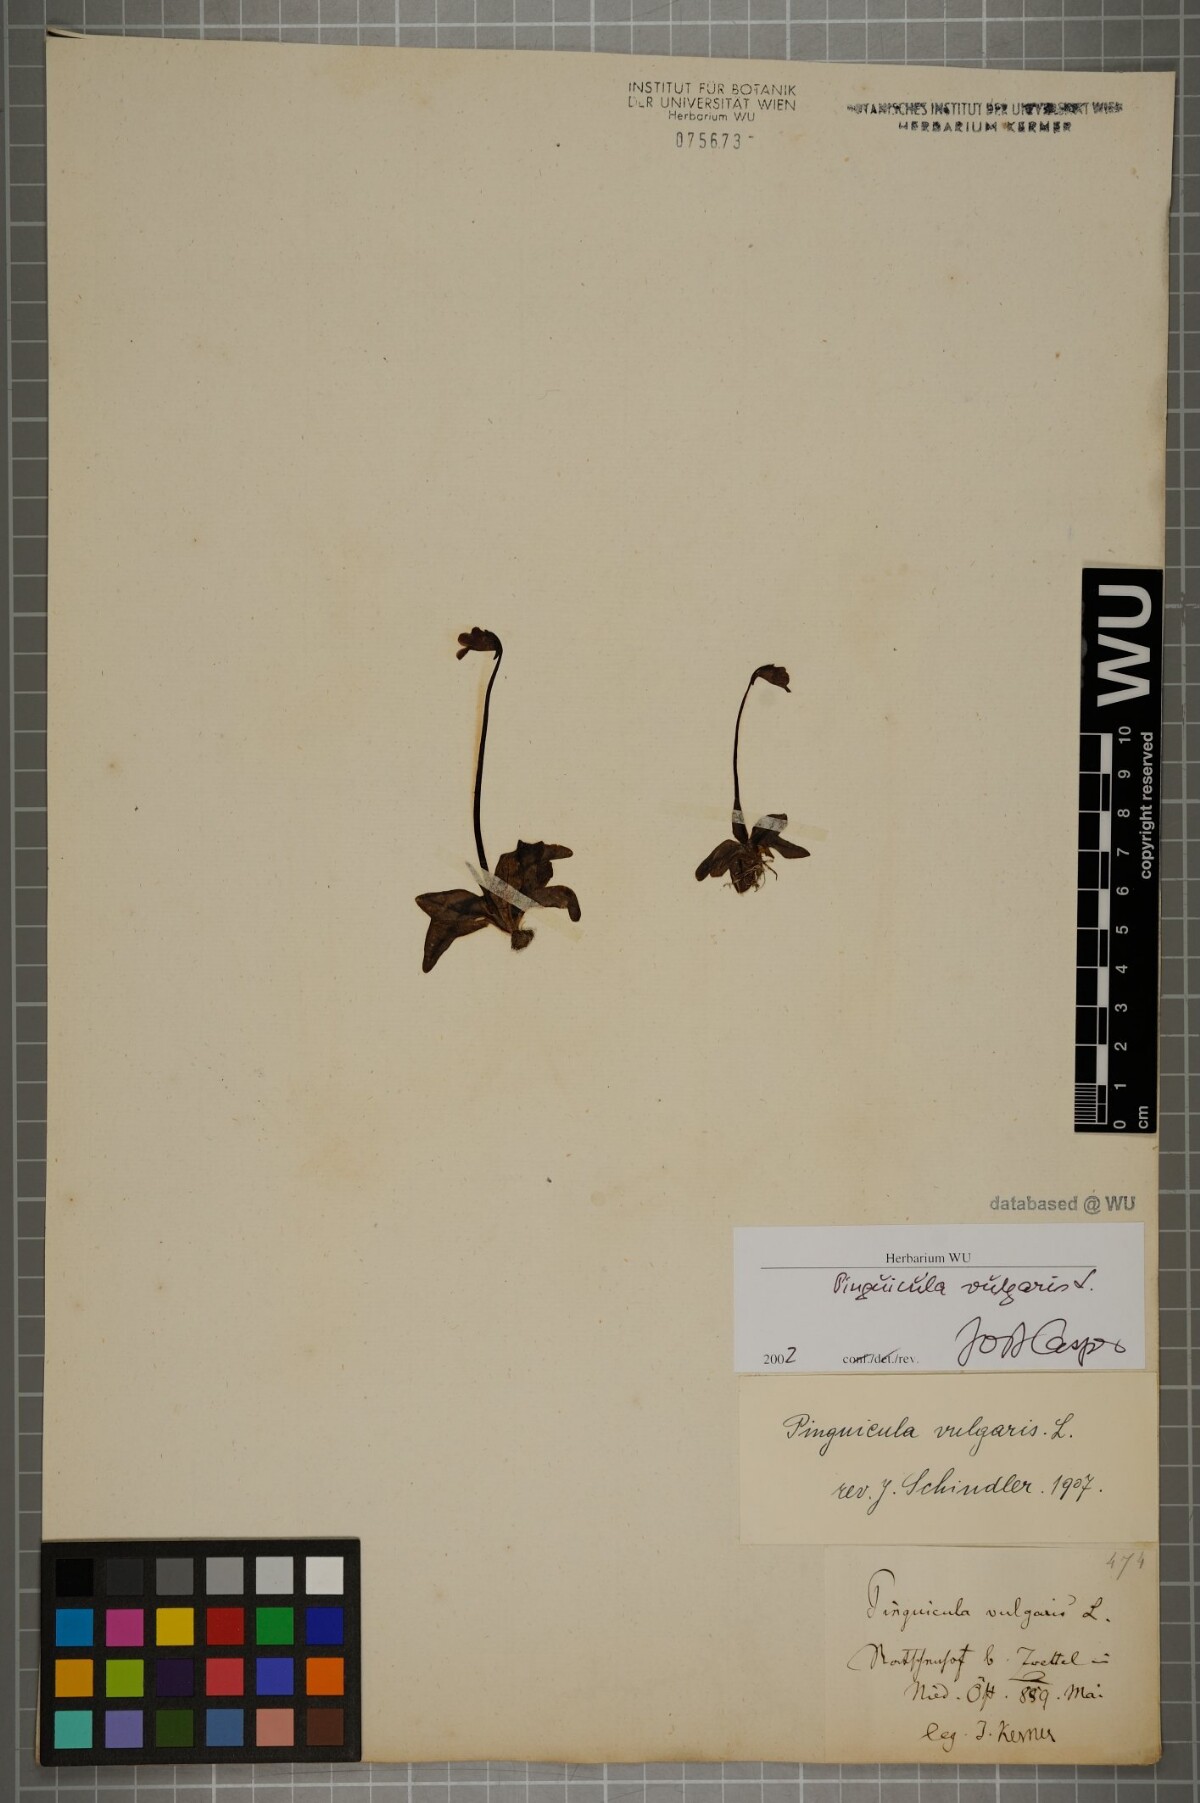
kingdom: Plantae
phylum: Tracheophyta
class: Magnoliopsida
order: Lamiales
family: Lentibulariaceae
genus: Pinguicula
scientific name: Pinguicula vulgaris
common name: Common butterwort
